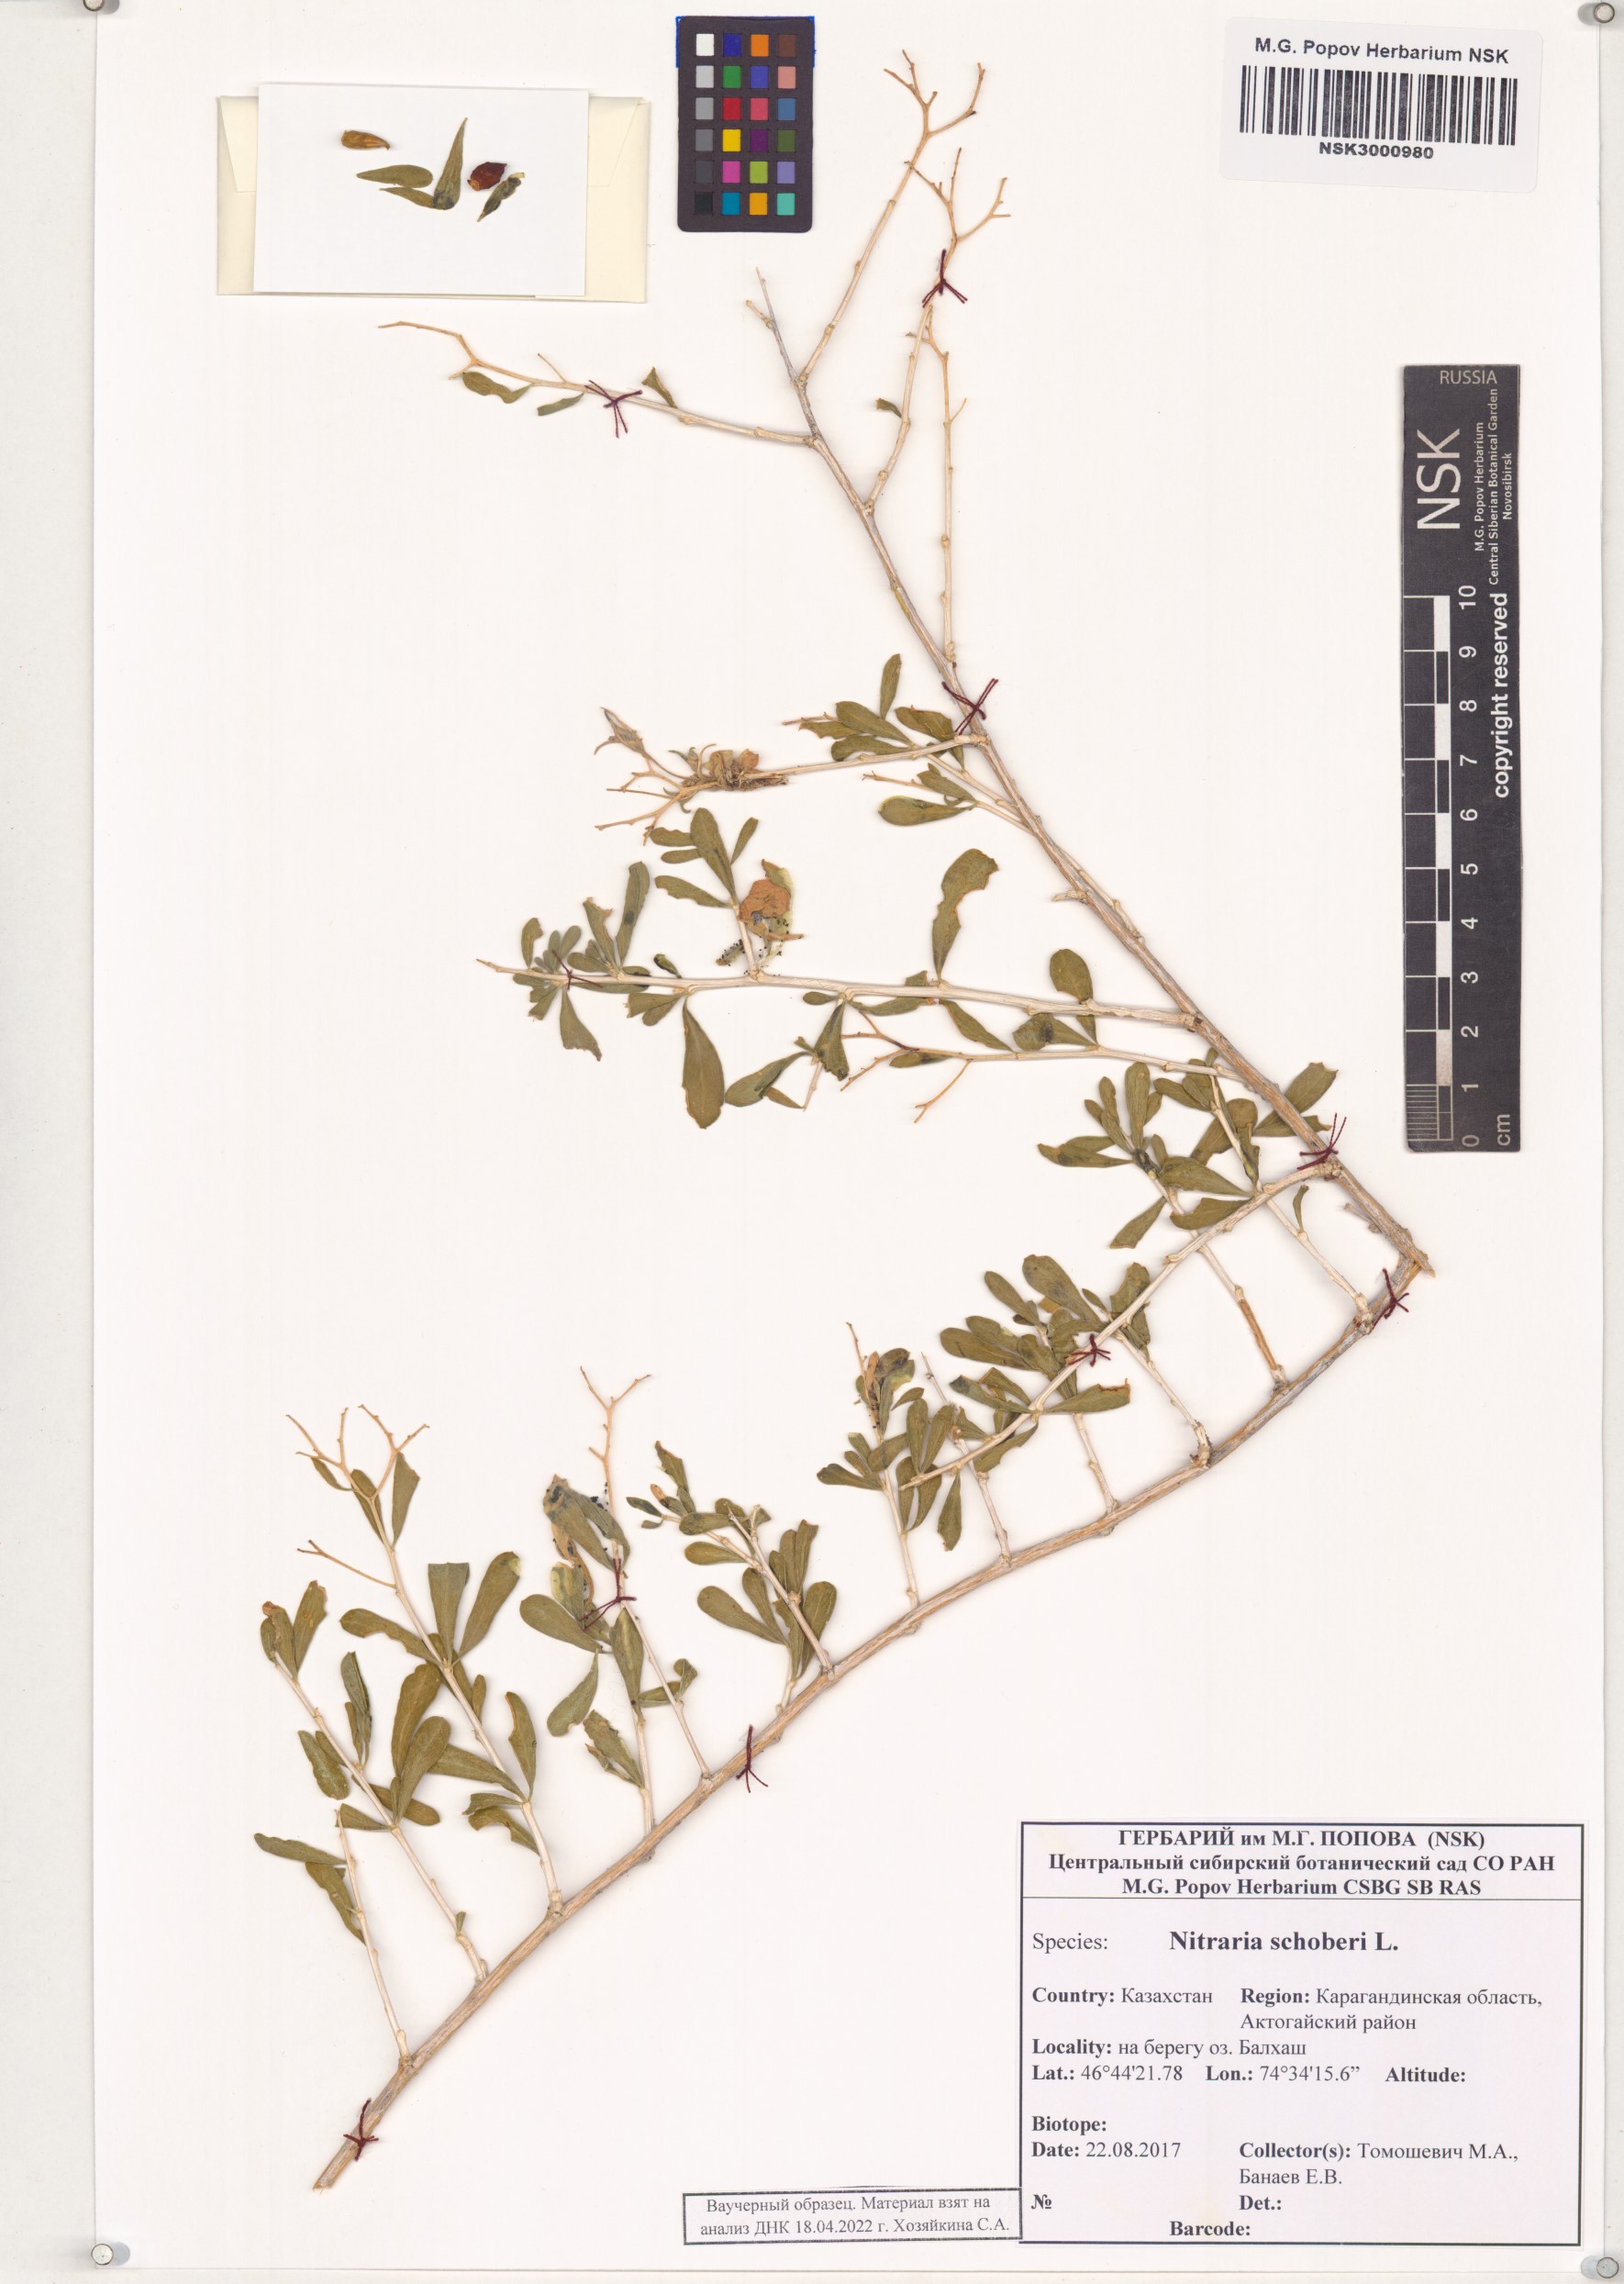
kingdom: Plantae
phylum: Tracheophyta
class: Magnoliopsida
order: Sapindales
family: Nitrariaceae
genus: Nitraria
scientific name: Nitraria schoberi
